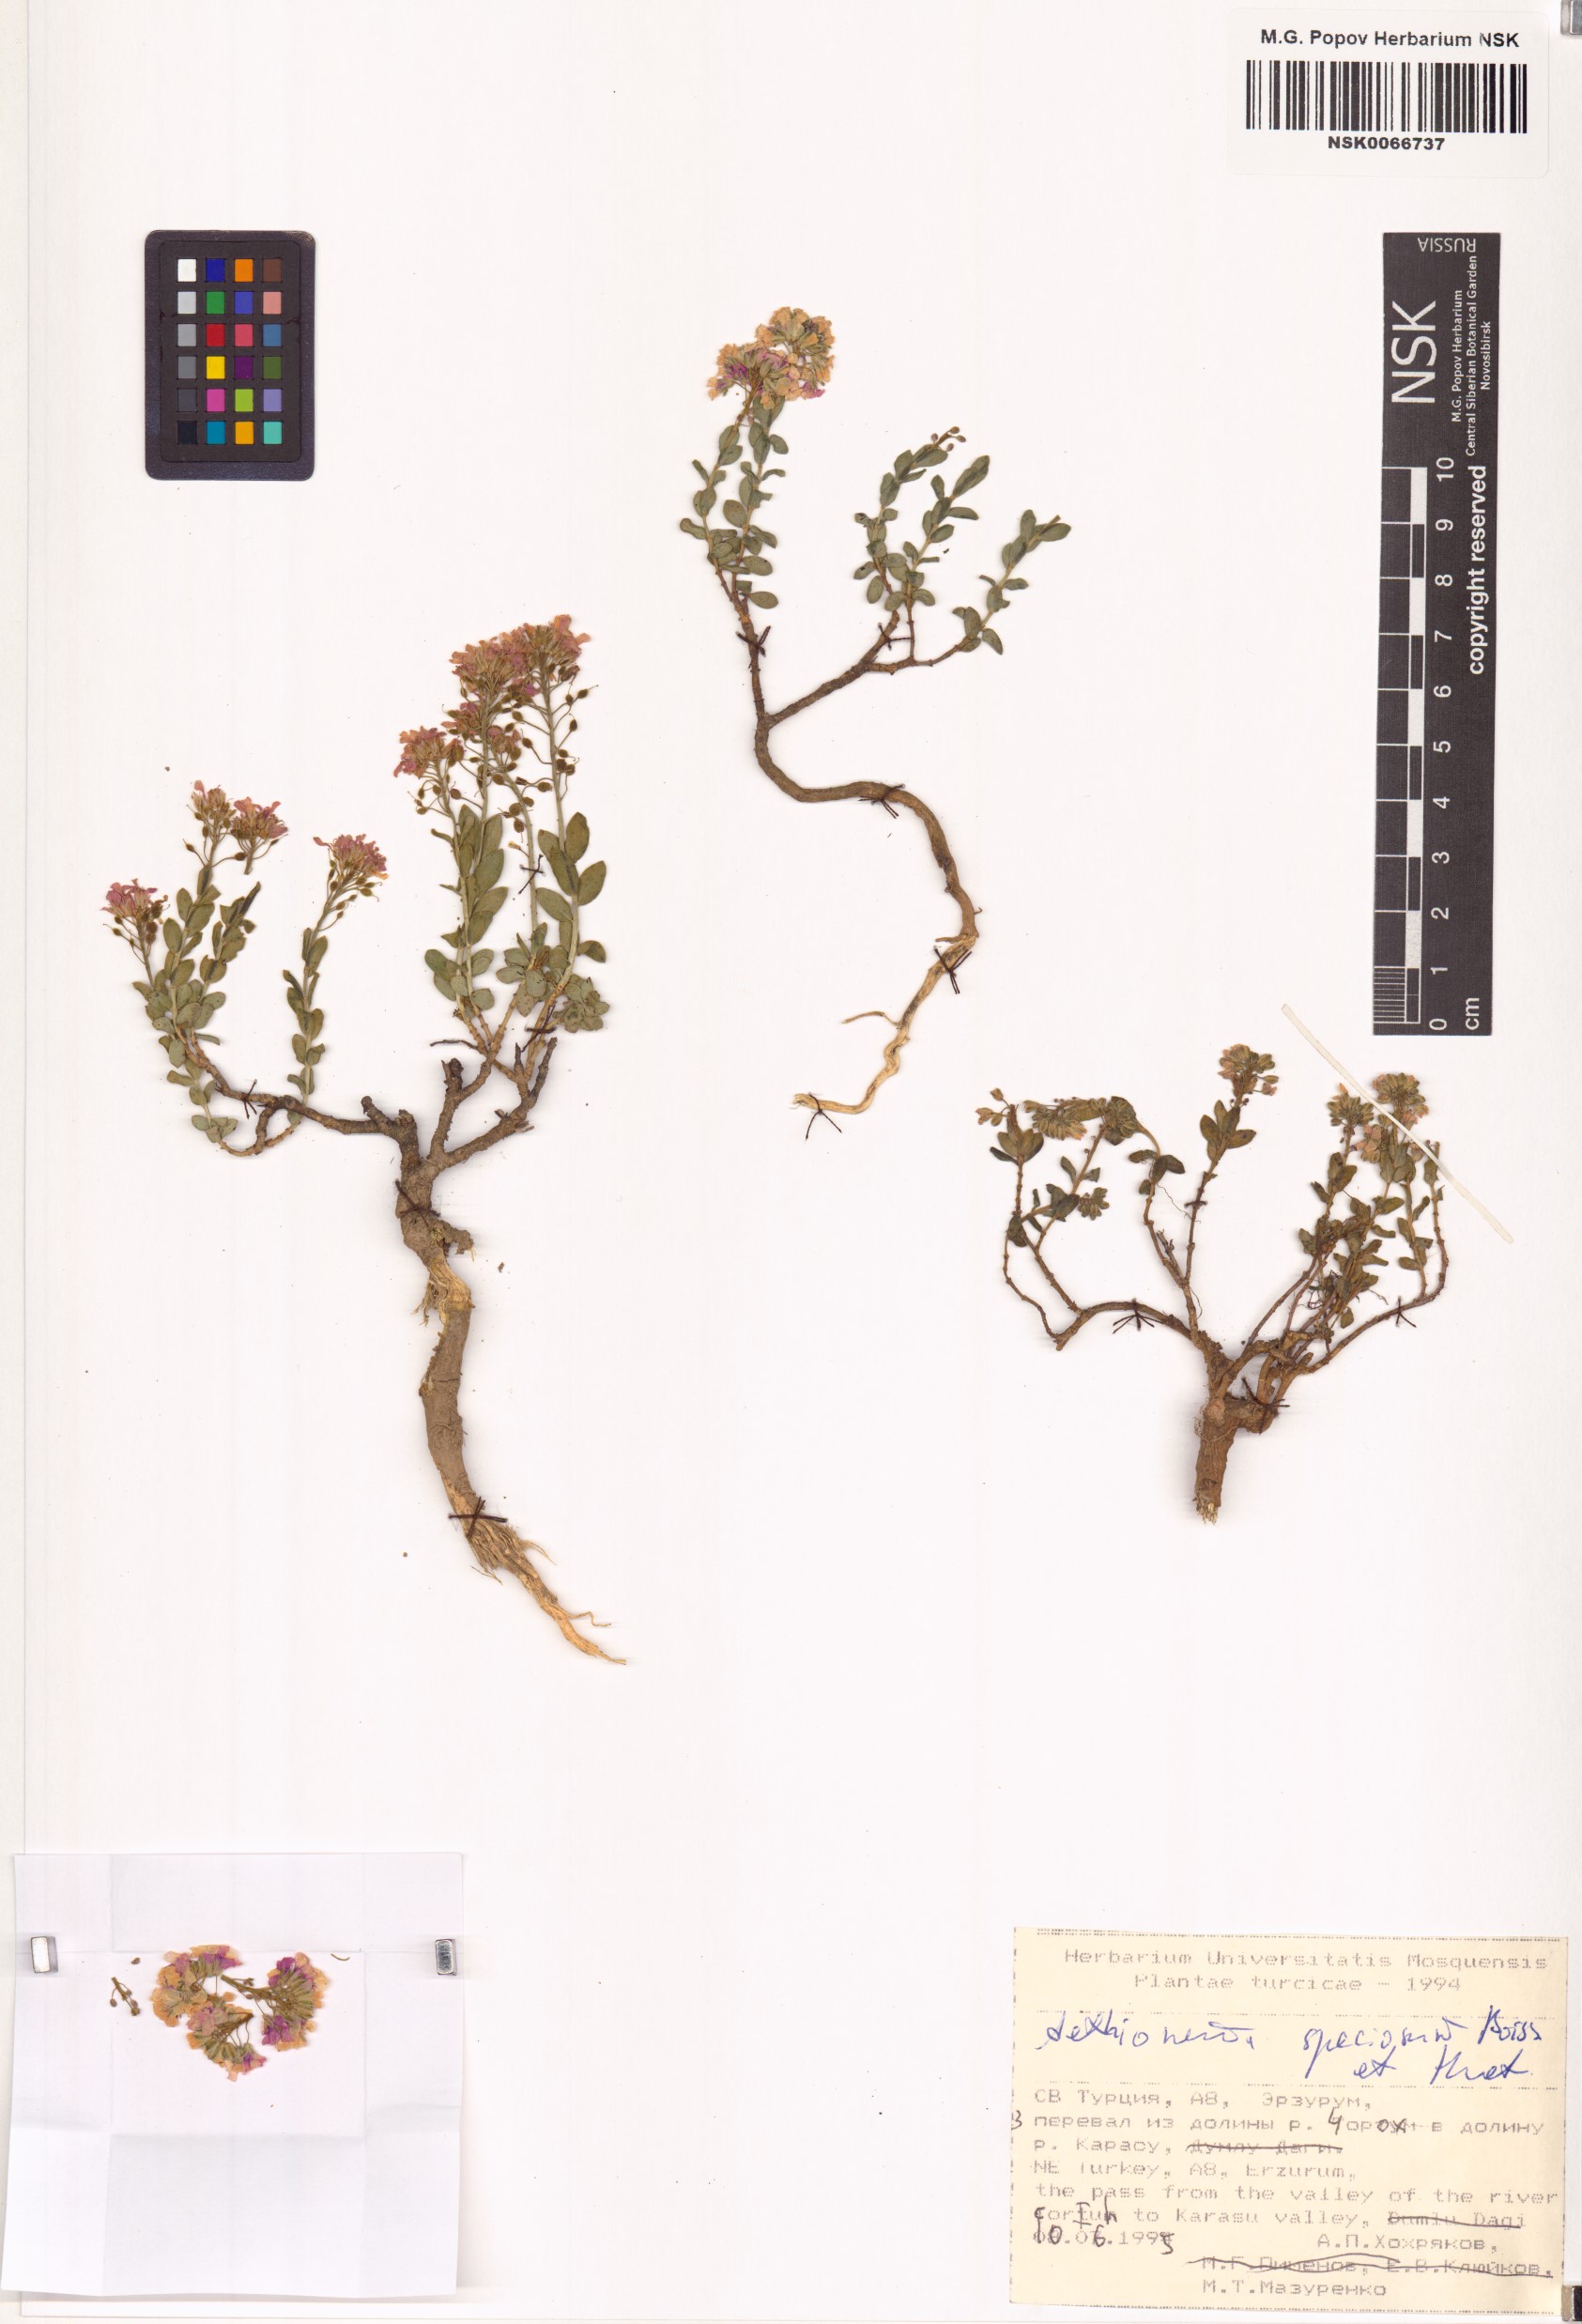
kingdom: Plantae
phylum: Tracheophyta
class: Magnoliopsida
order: Brassicales
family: Brassicaceae
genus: Aethionema
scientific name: Aethionema speciosum
